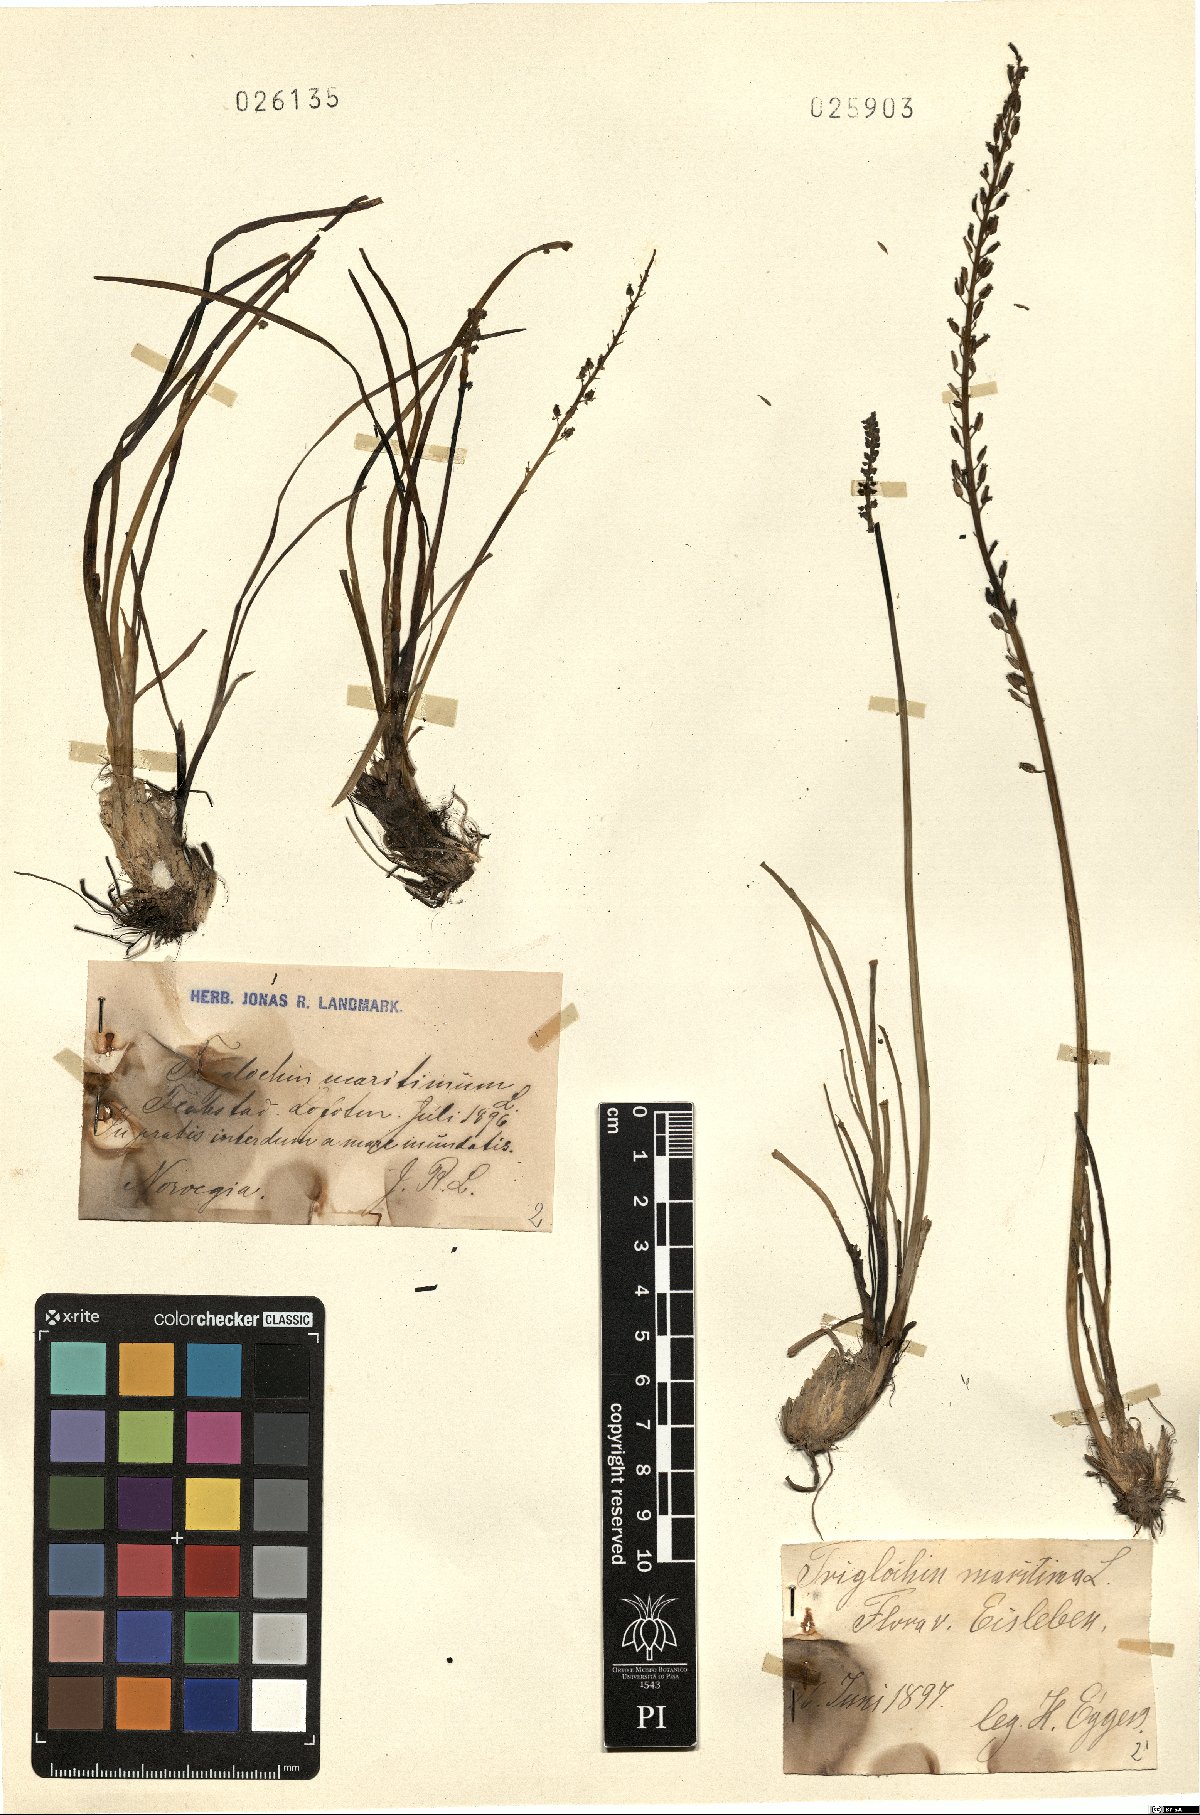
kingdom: Plantae
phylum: Tracheophyta
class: Liliopsida
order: Alismatales
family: Juncaginaceae
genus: Triglochin
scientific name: Triglochin maritima
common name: Sea arrowgrass
